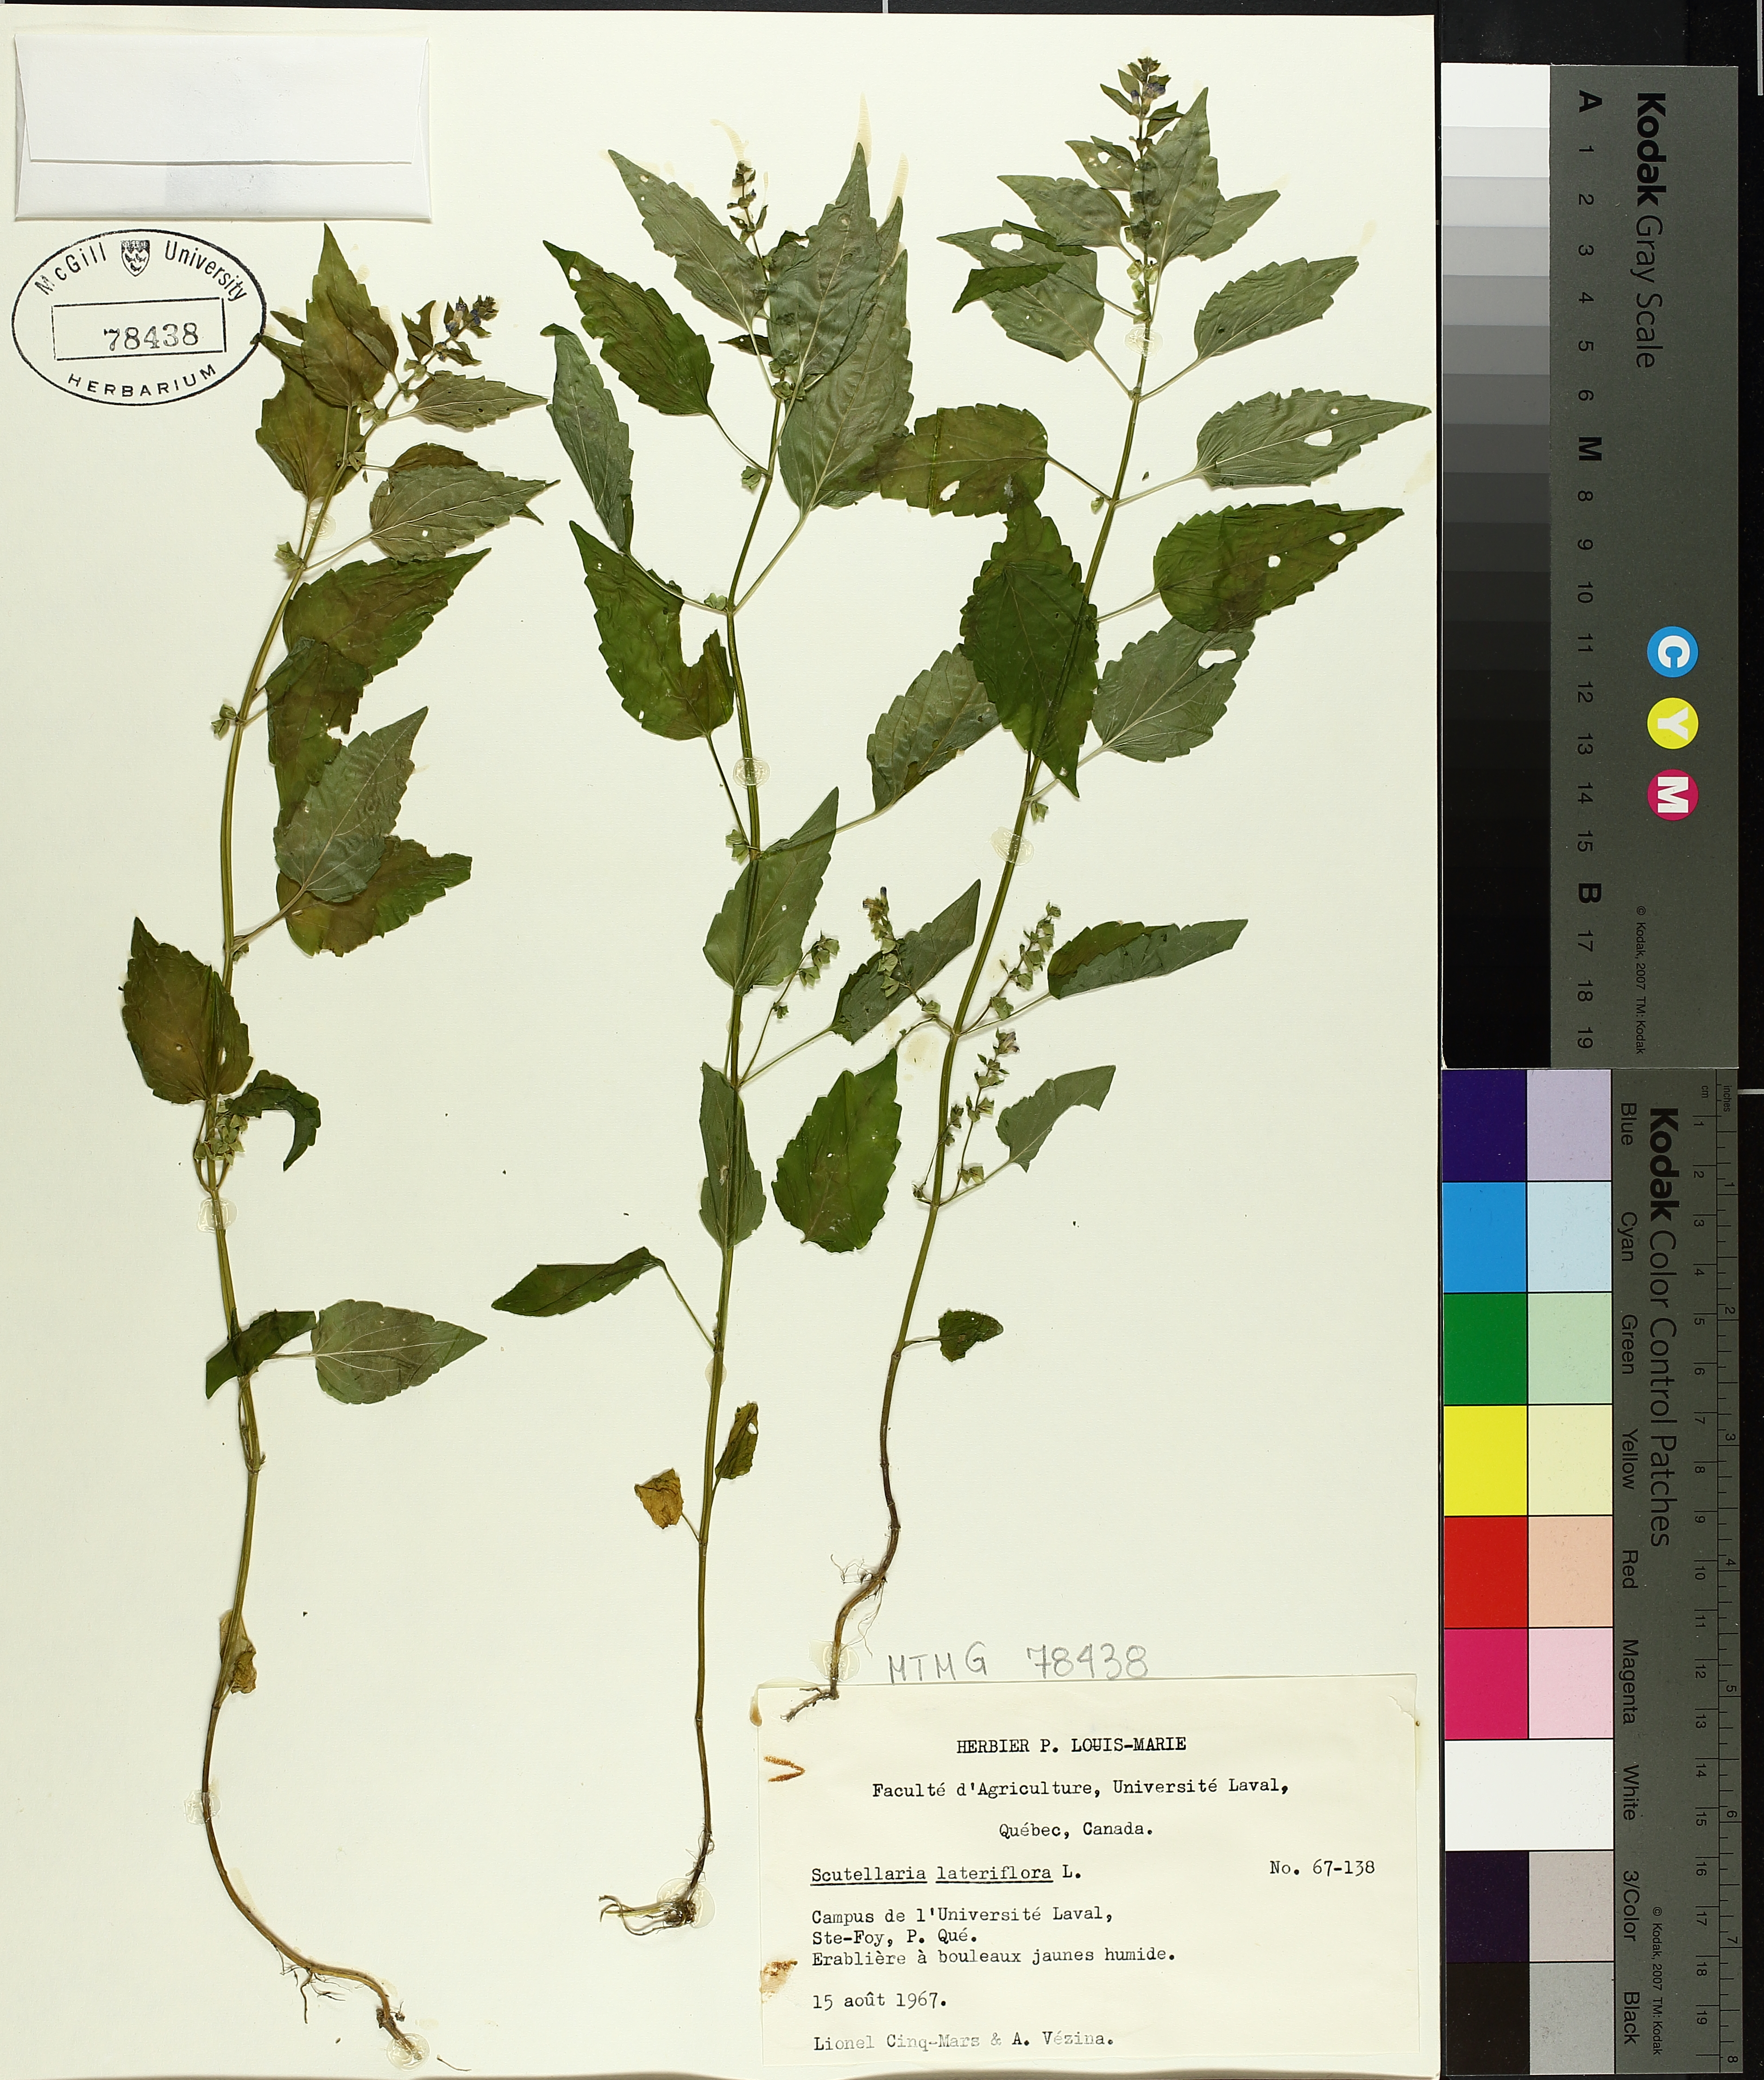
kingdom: Plantae
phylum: Tracheophyta
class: Magnoliopsida
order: Lamiales
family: Lamiaceae
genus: Scutellaria
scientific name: Scutellaria lateriflora
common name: Blue skullcap
